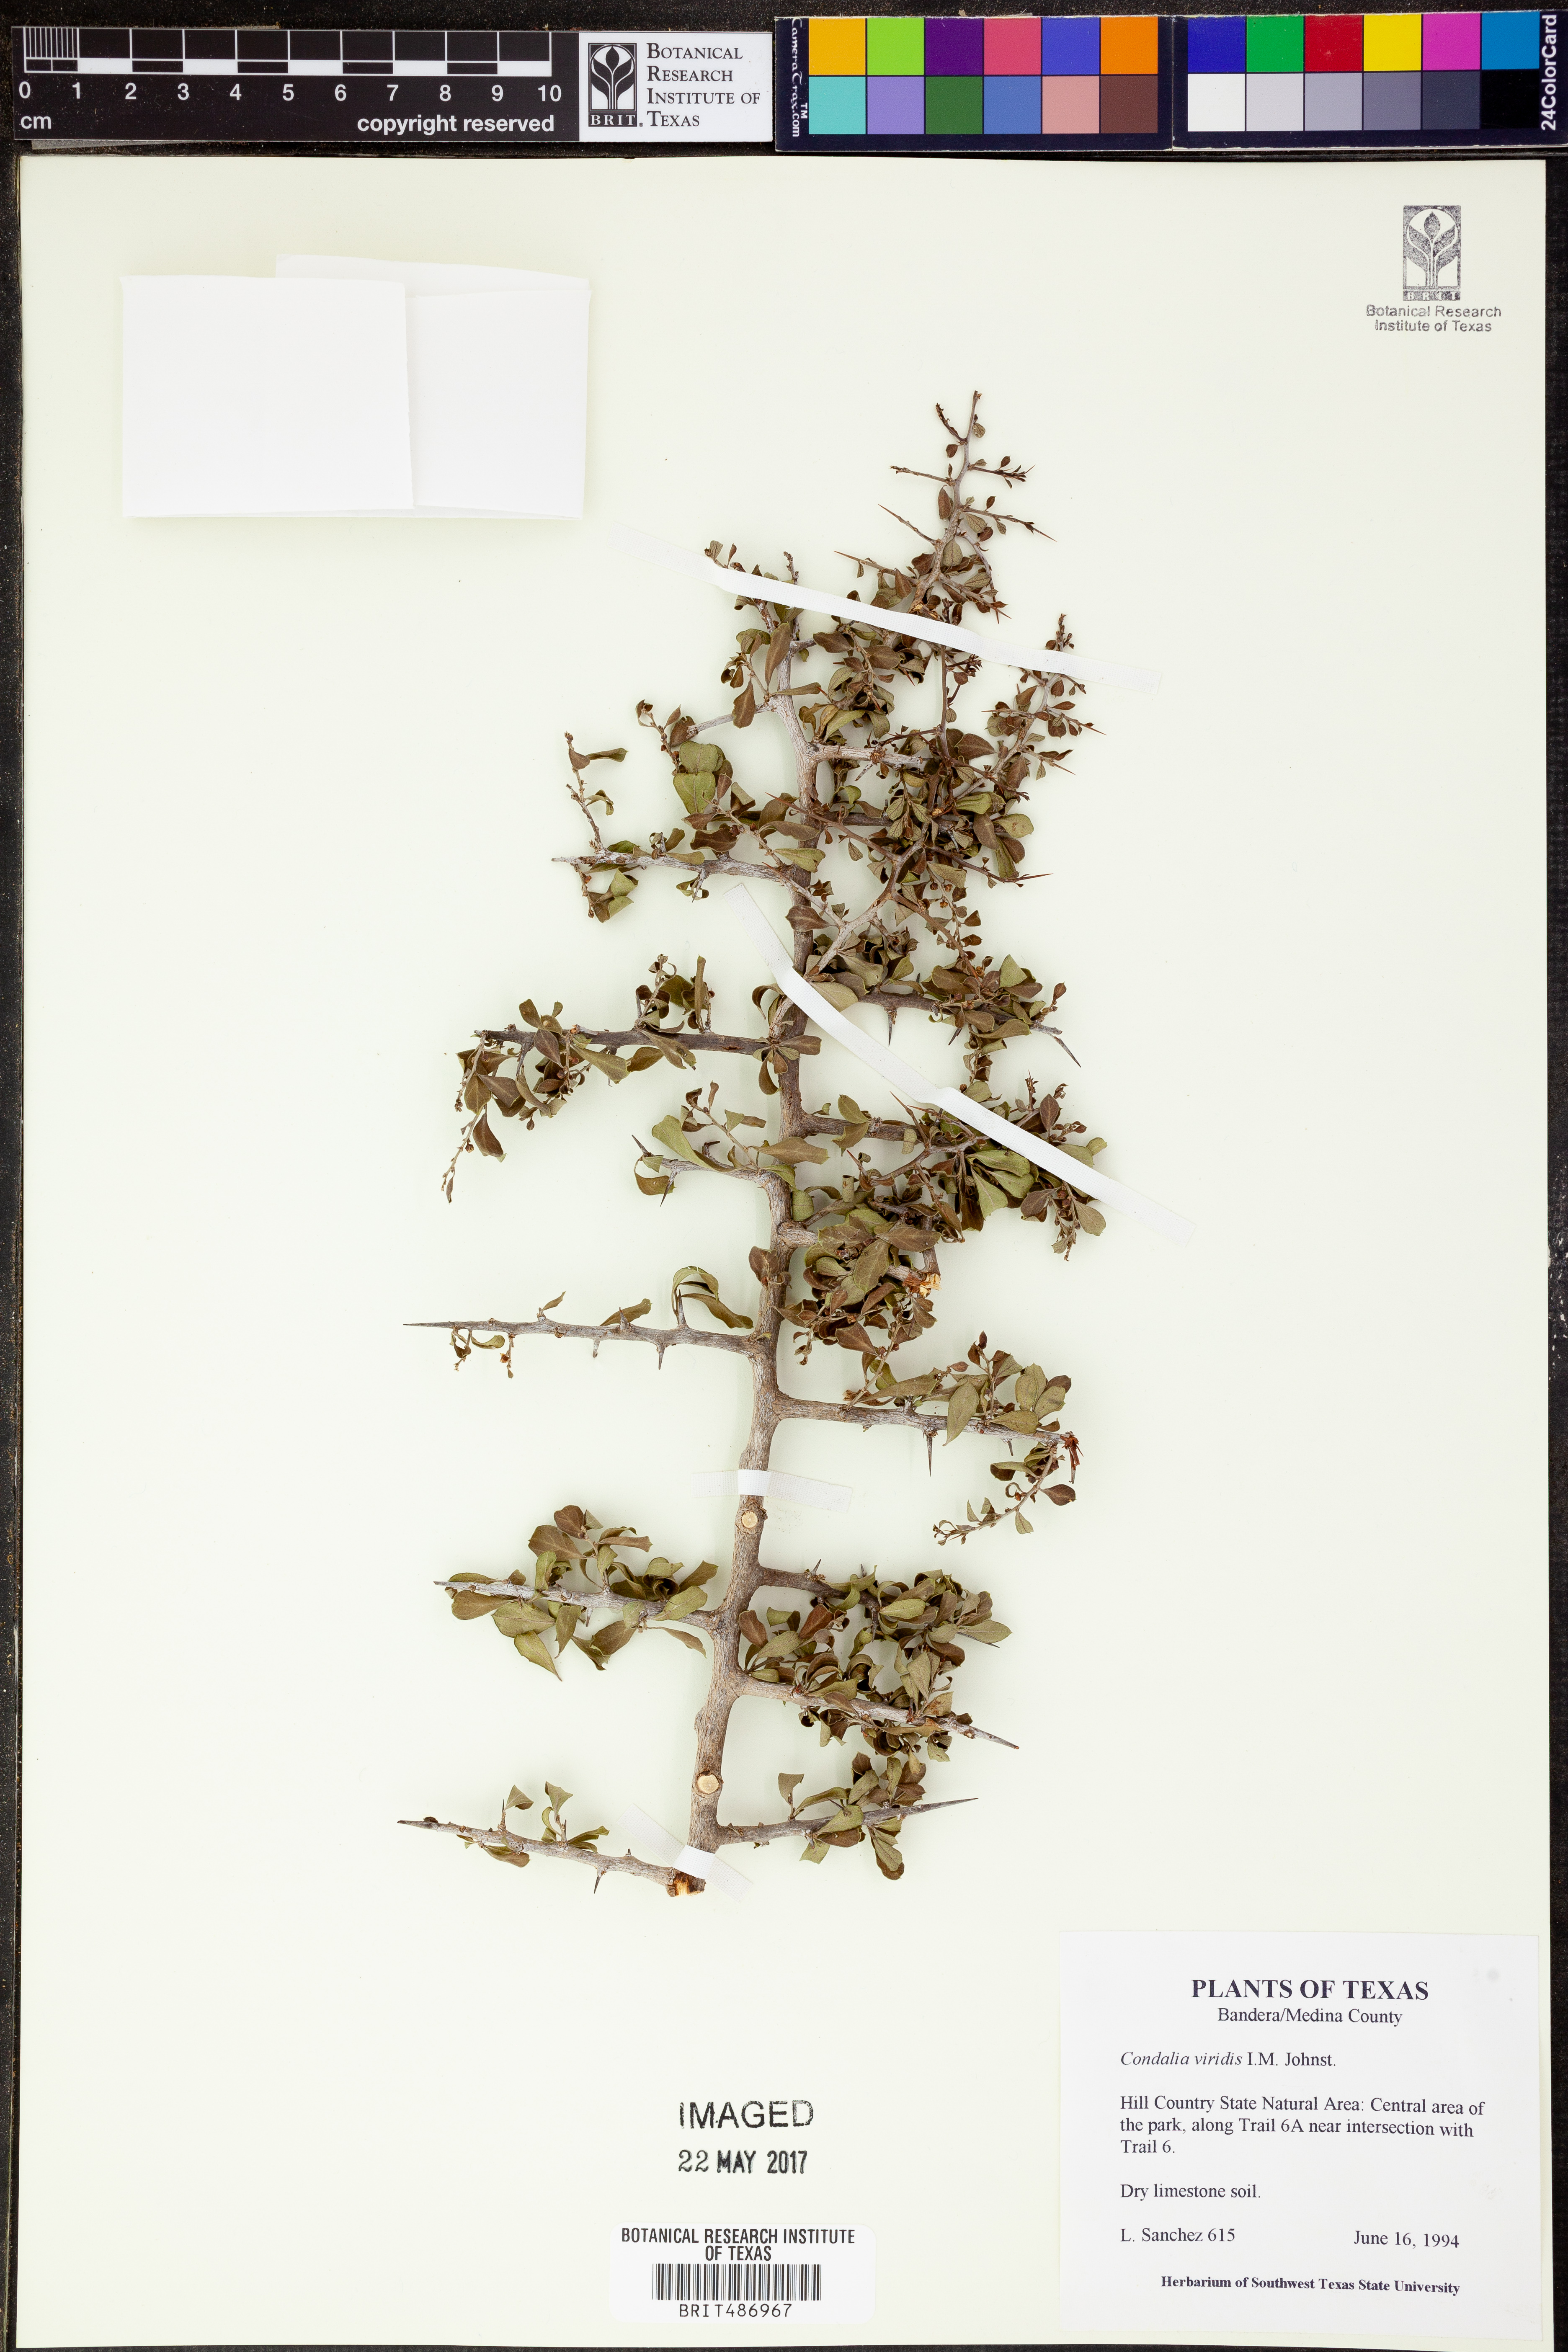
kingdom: Plantae
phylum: Tracheophyta
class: Magnoliopsida
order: Rosales
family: Rhamnaceae
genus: Condalia
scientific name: Condalia viridis
